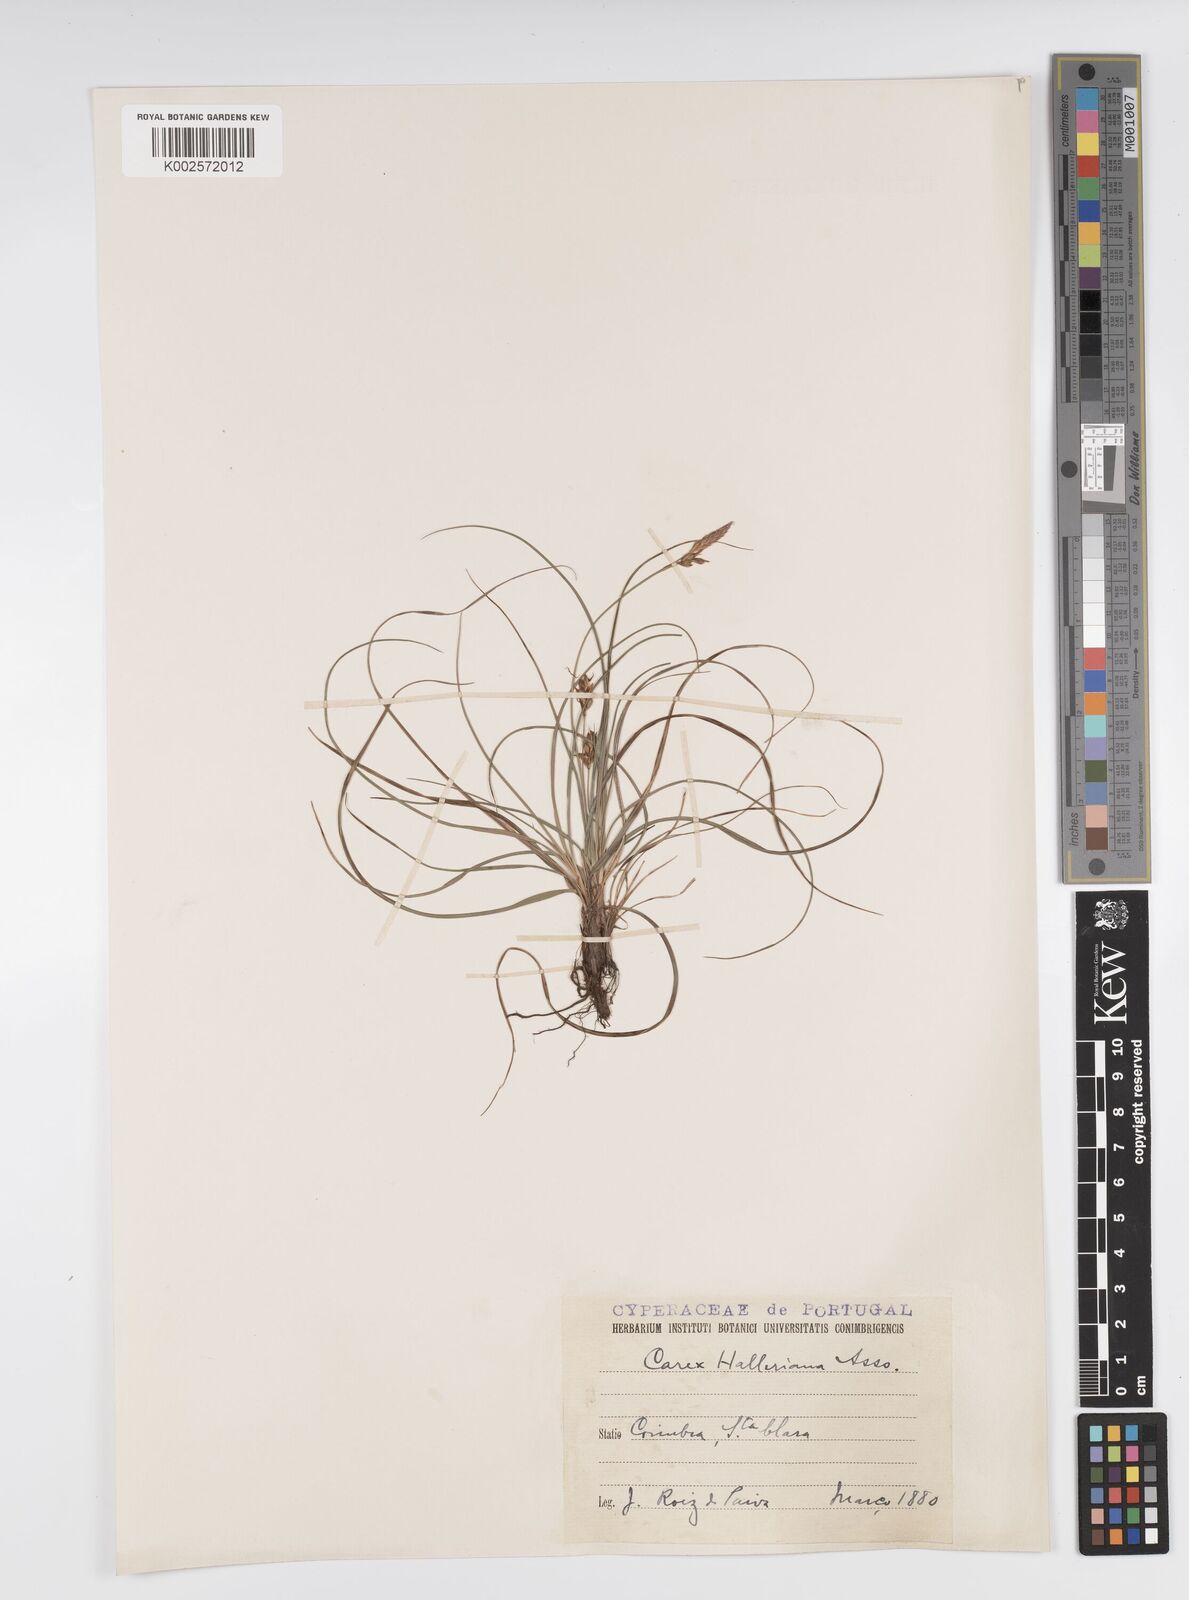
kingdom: Plantae
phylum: Tracheophyta
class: Liliopsida
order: Poales
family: Cyperaceae
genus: Carex
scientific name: Carex halleriana
